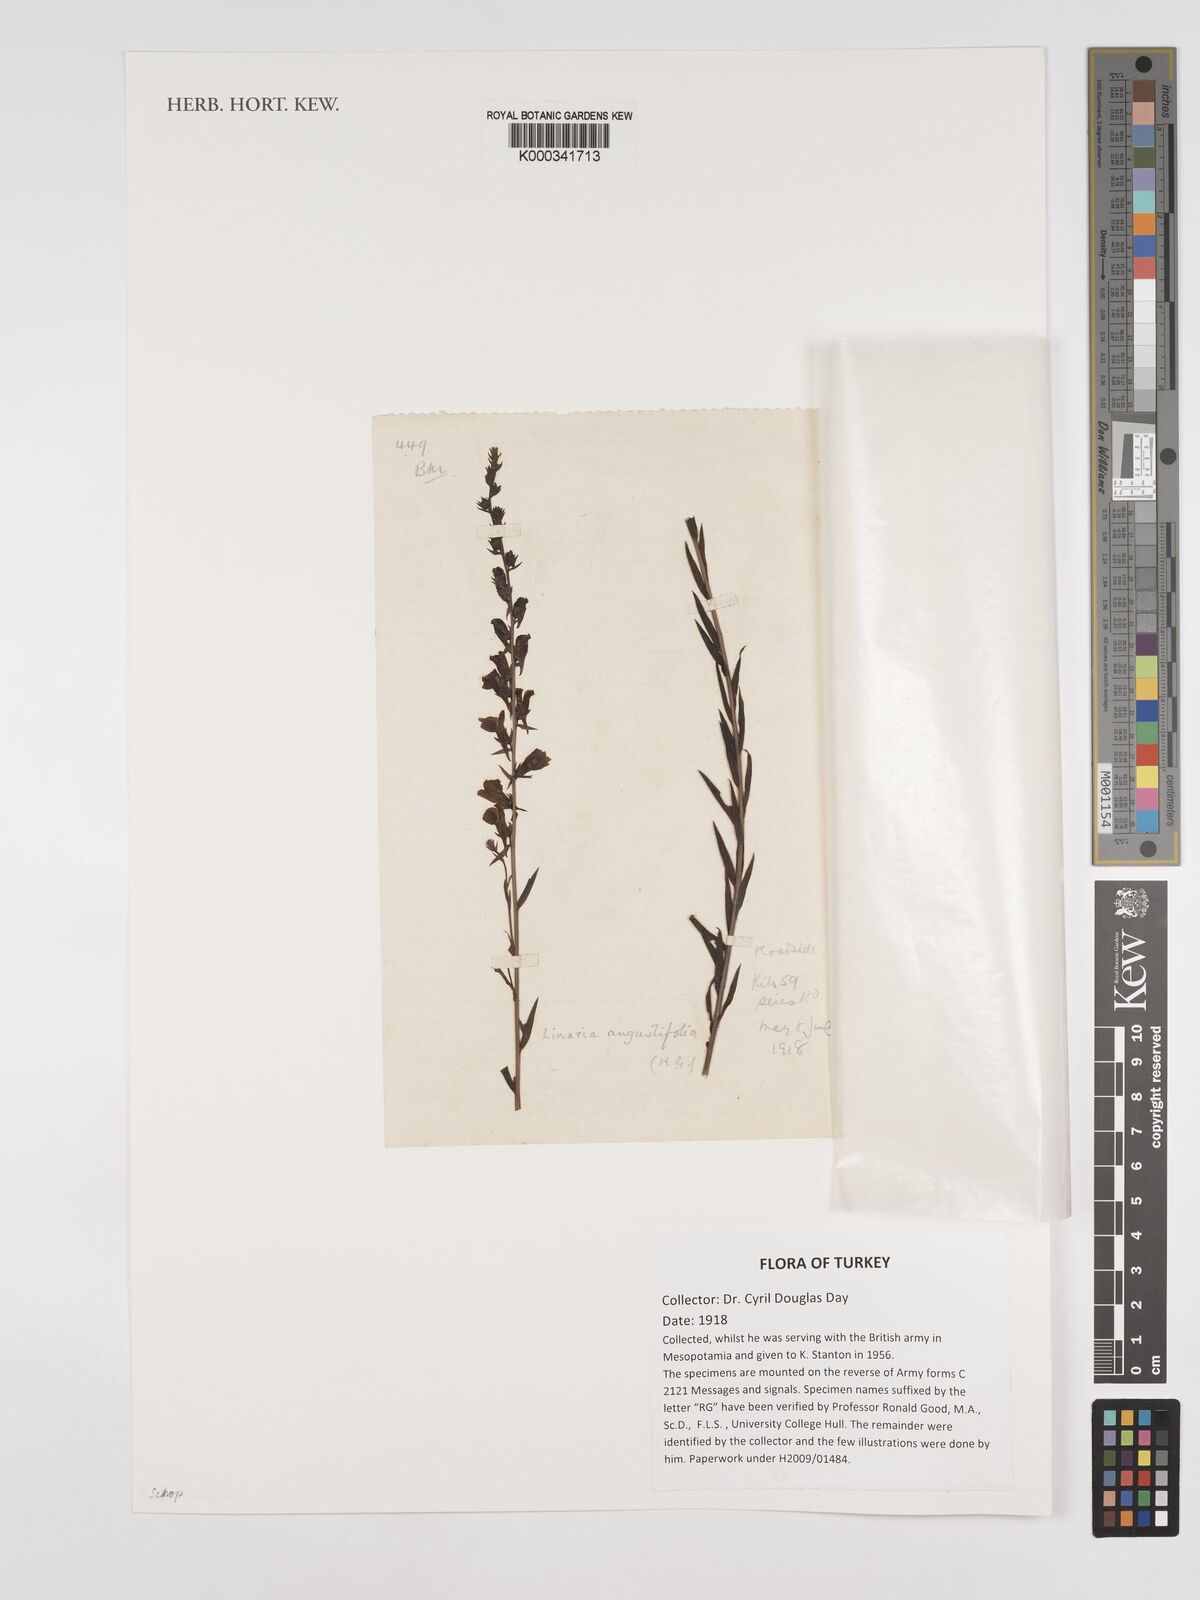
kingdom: Plantae
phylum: Tracheophyta
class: Magnoliopsida
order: Lamiales
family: Plantaginaceae
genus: Linaria
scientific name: Linaria angustissima
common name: Italian toadflax
